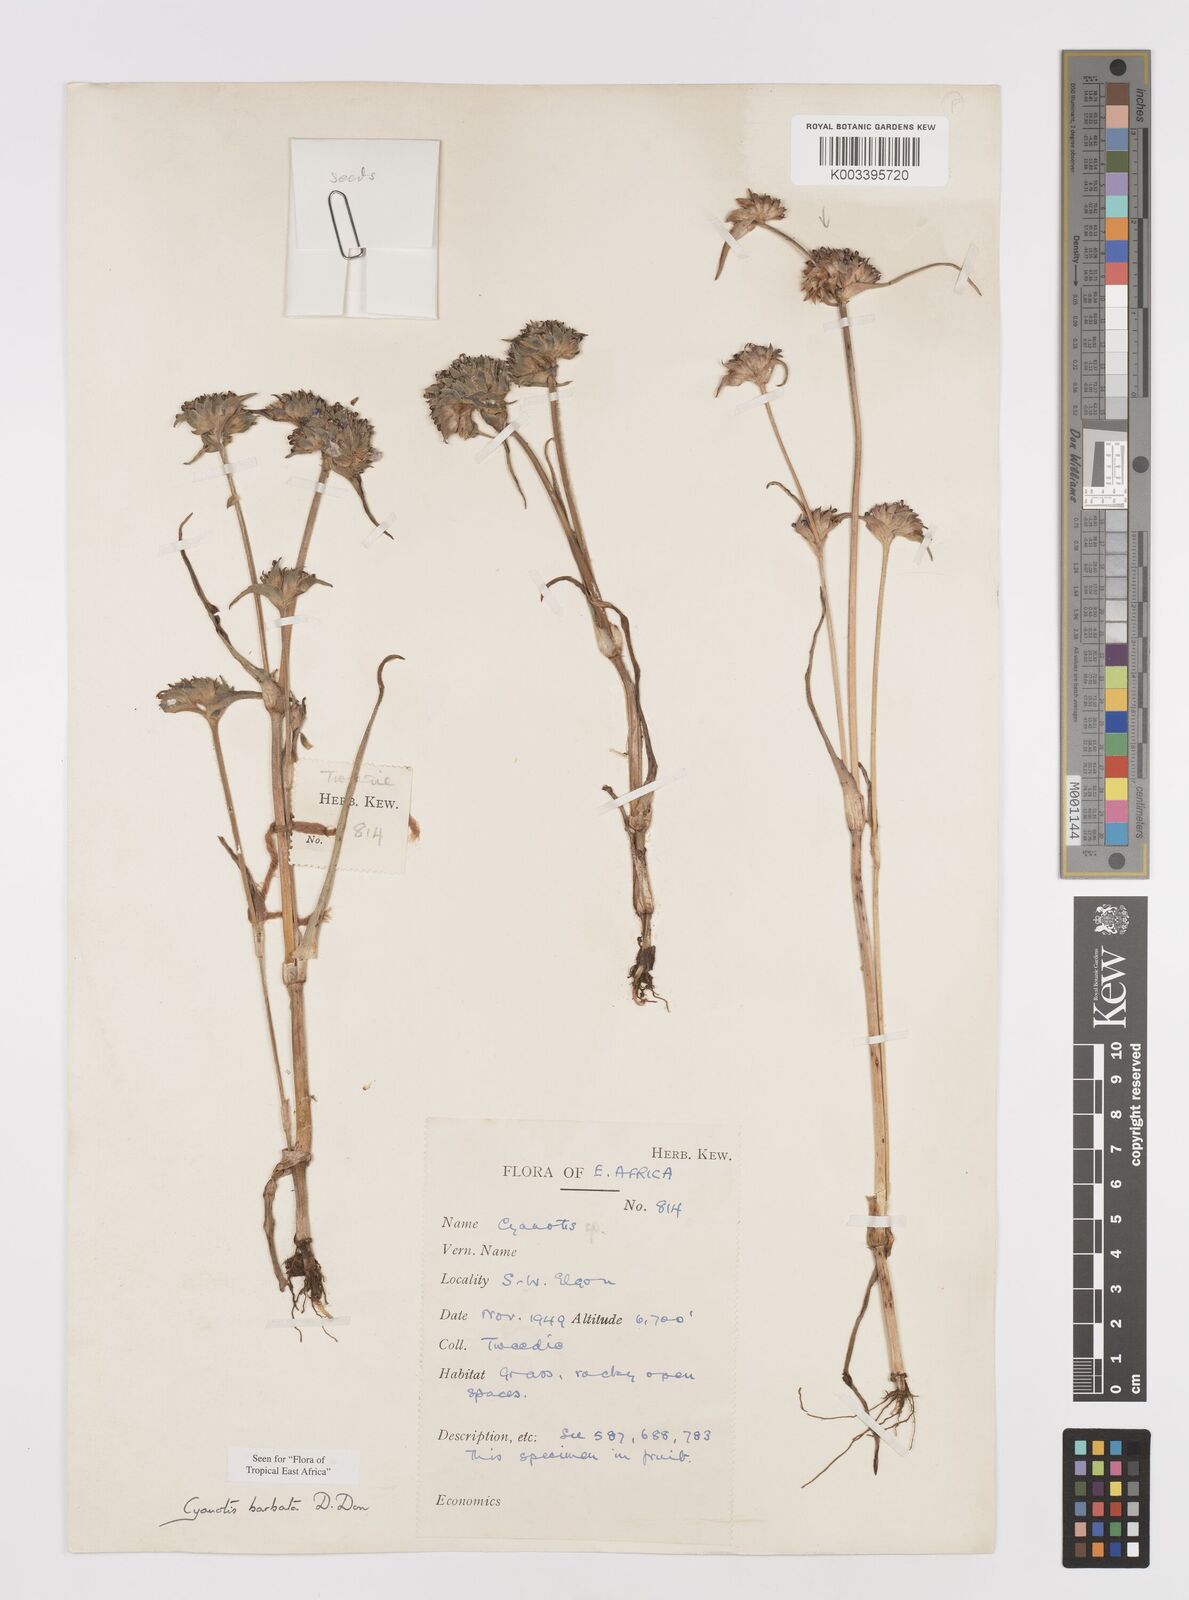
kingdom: Plantae
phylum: Tracheophyta
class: Liliopsida
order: Commelinales
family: Commelinaceae
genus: Cyanotis
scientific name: Cyanotis vaga
